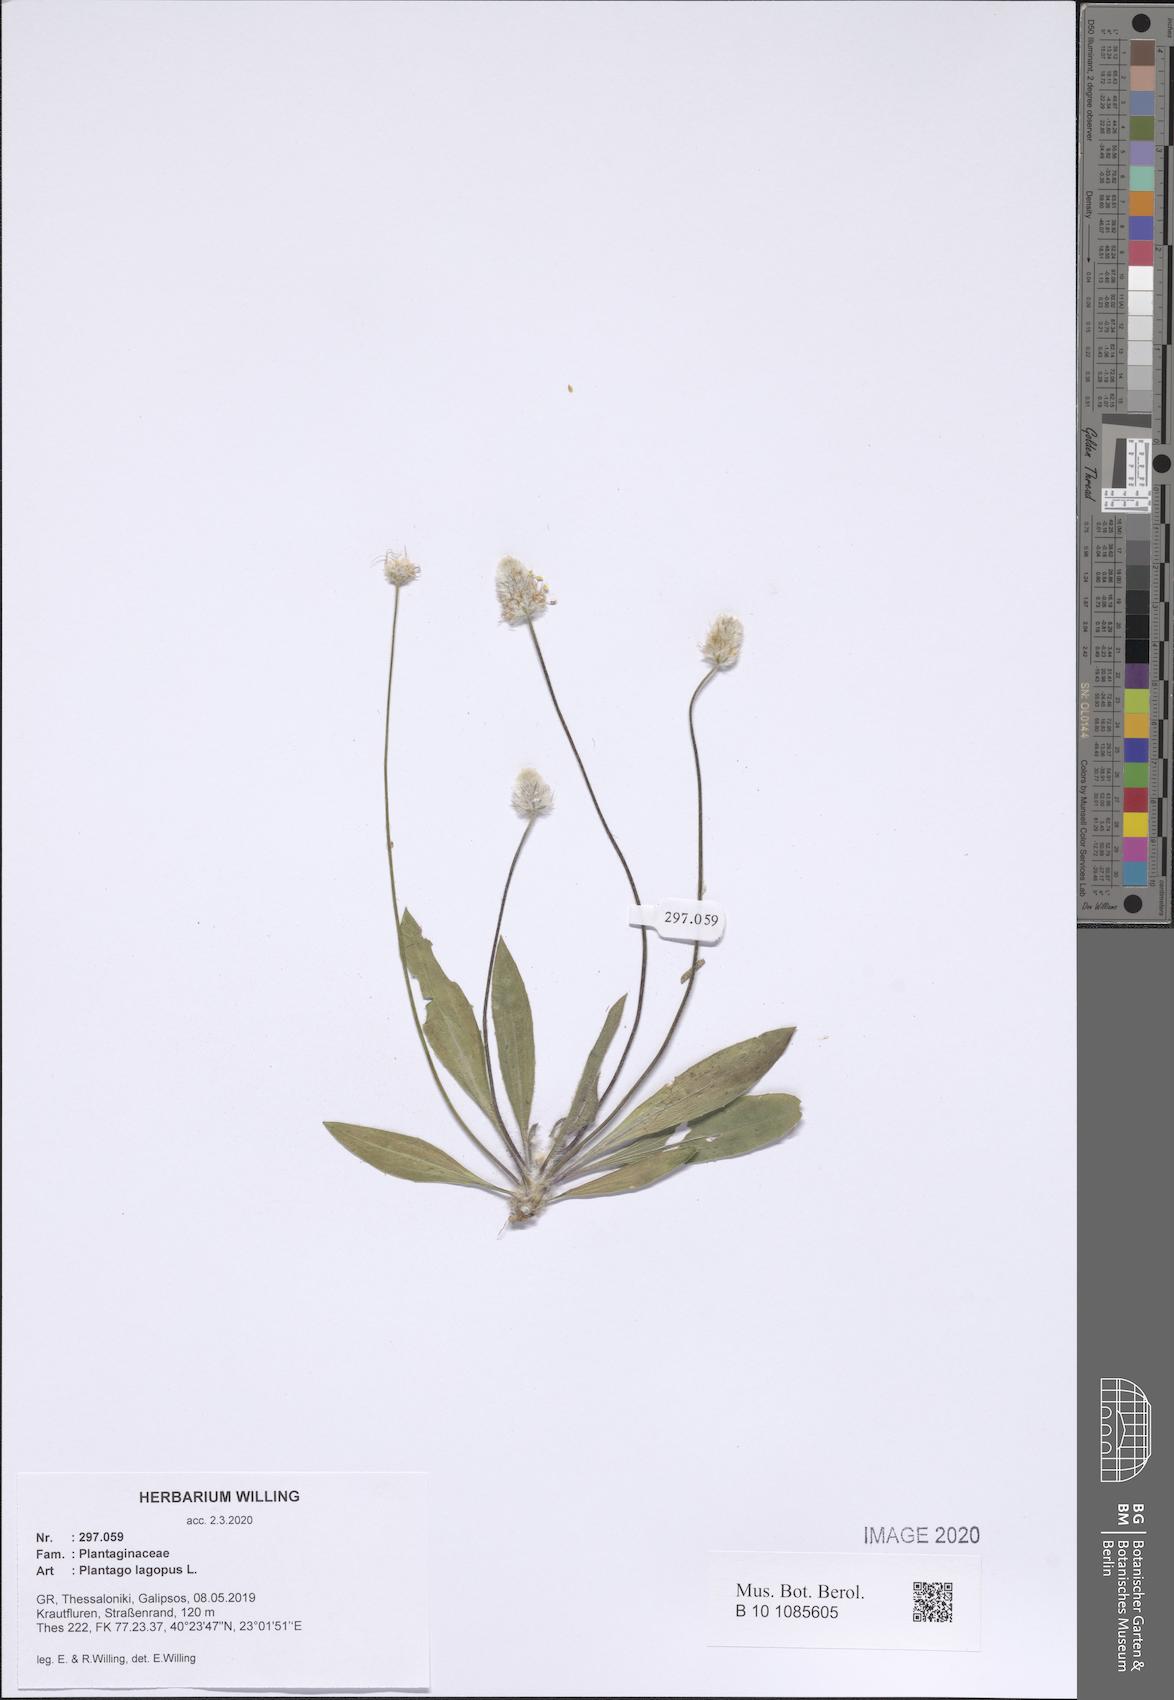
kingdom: Plantae
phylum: Tracheophyta
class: Magnoliopsida
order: Lamiales
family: Plantaginaceae
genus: Plantago
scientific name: Plantago lagopus
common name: Hare-foot plantain
